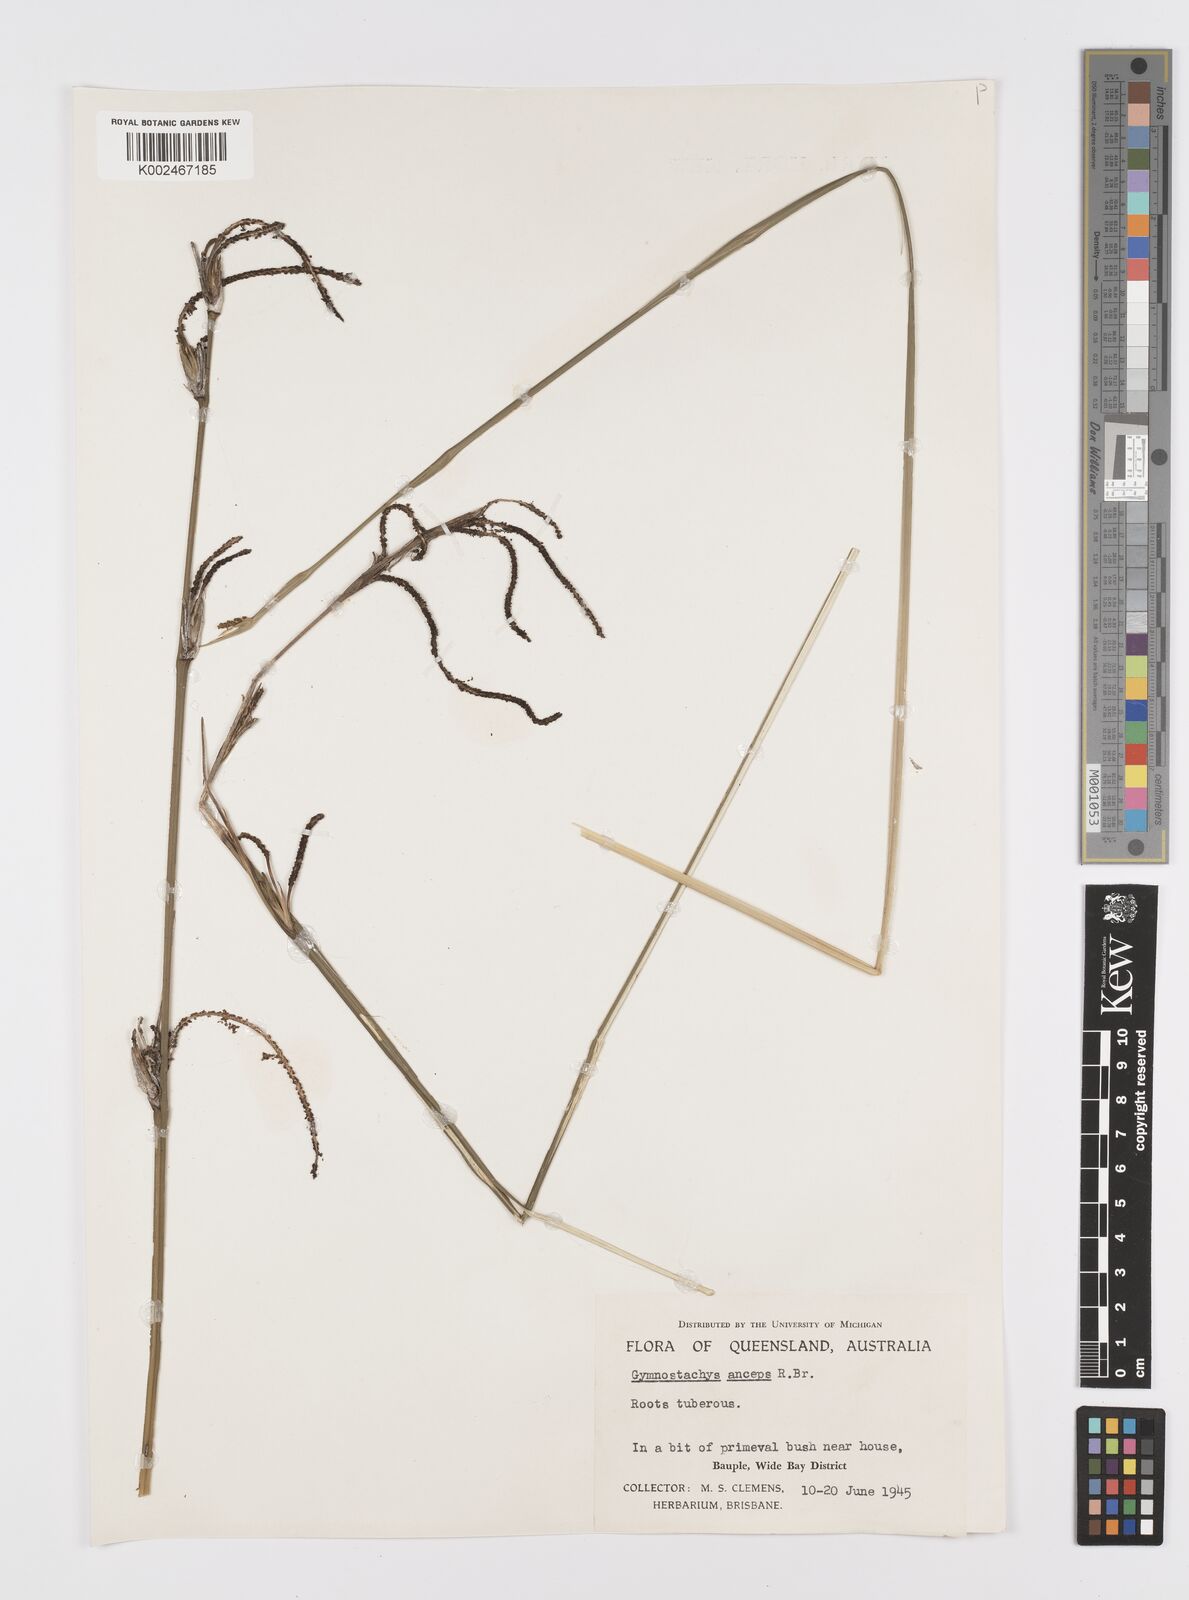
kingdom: Plantae
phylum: Tracheophyta
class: Liliopsida
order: Alismatales
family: Araceae
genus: Gymnostachys
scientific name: Gymnostachys anceps
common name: Settler's-flax
